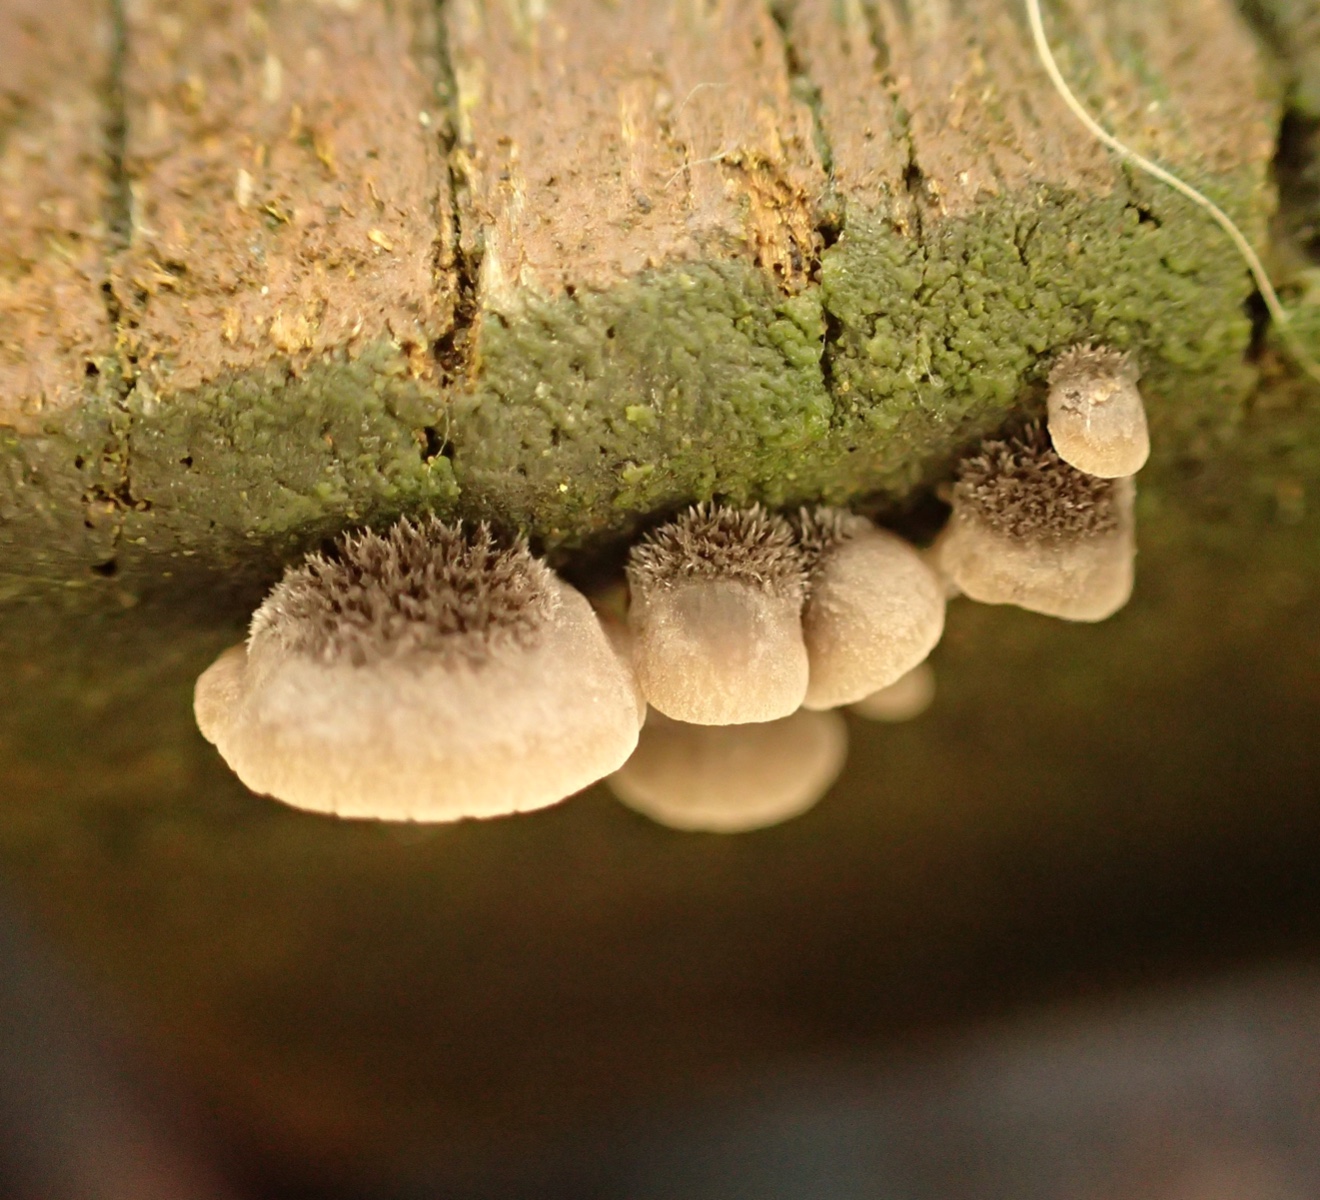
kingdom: Fungi
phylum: Basidiomycota
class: Agaricomycetes
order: Agaricales
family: Pleurotaceae
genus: Resupinatus
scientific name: Resupinatus trichotis
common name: mørkfiltet barkhat
